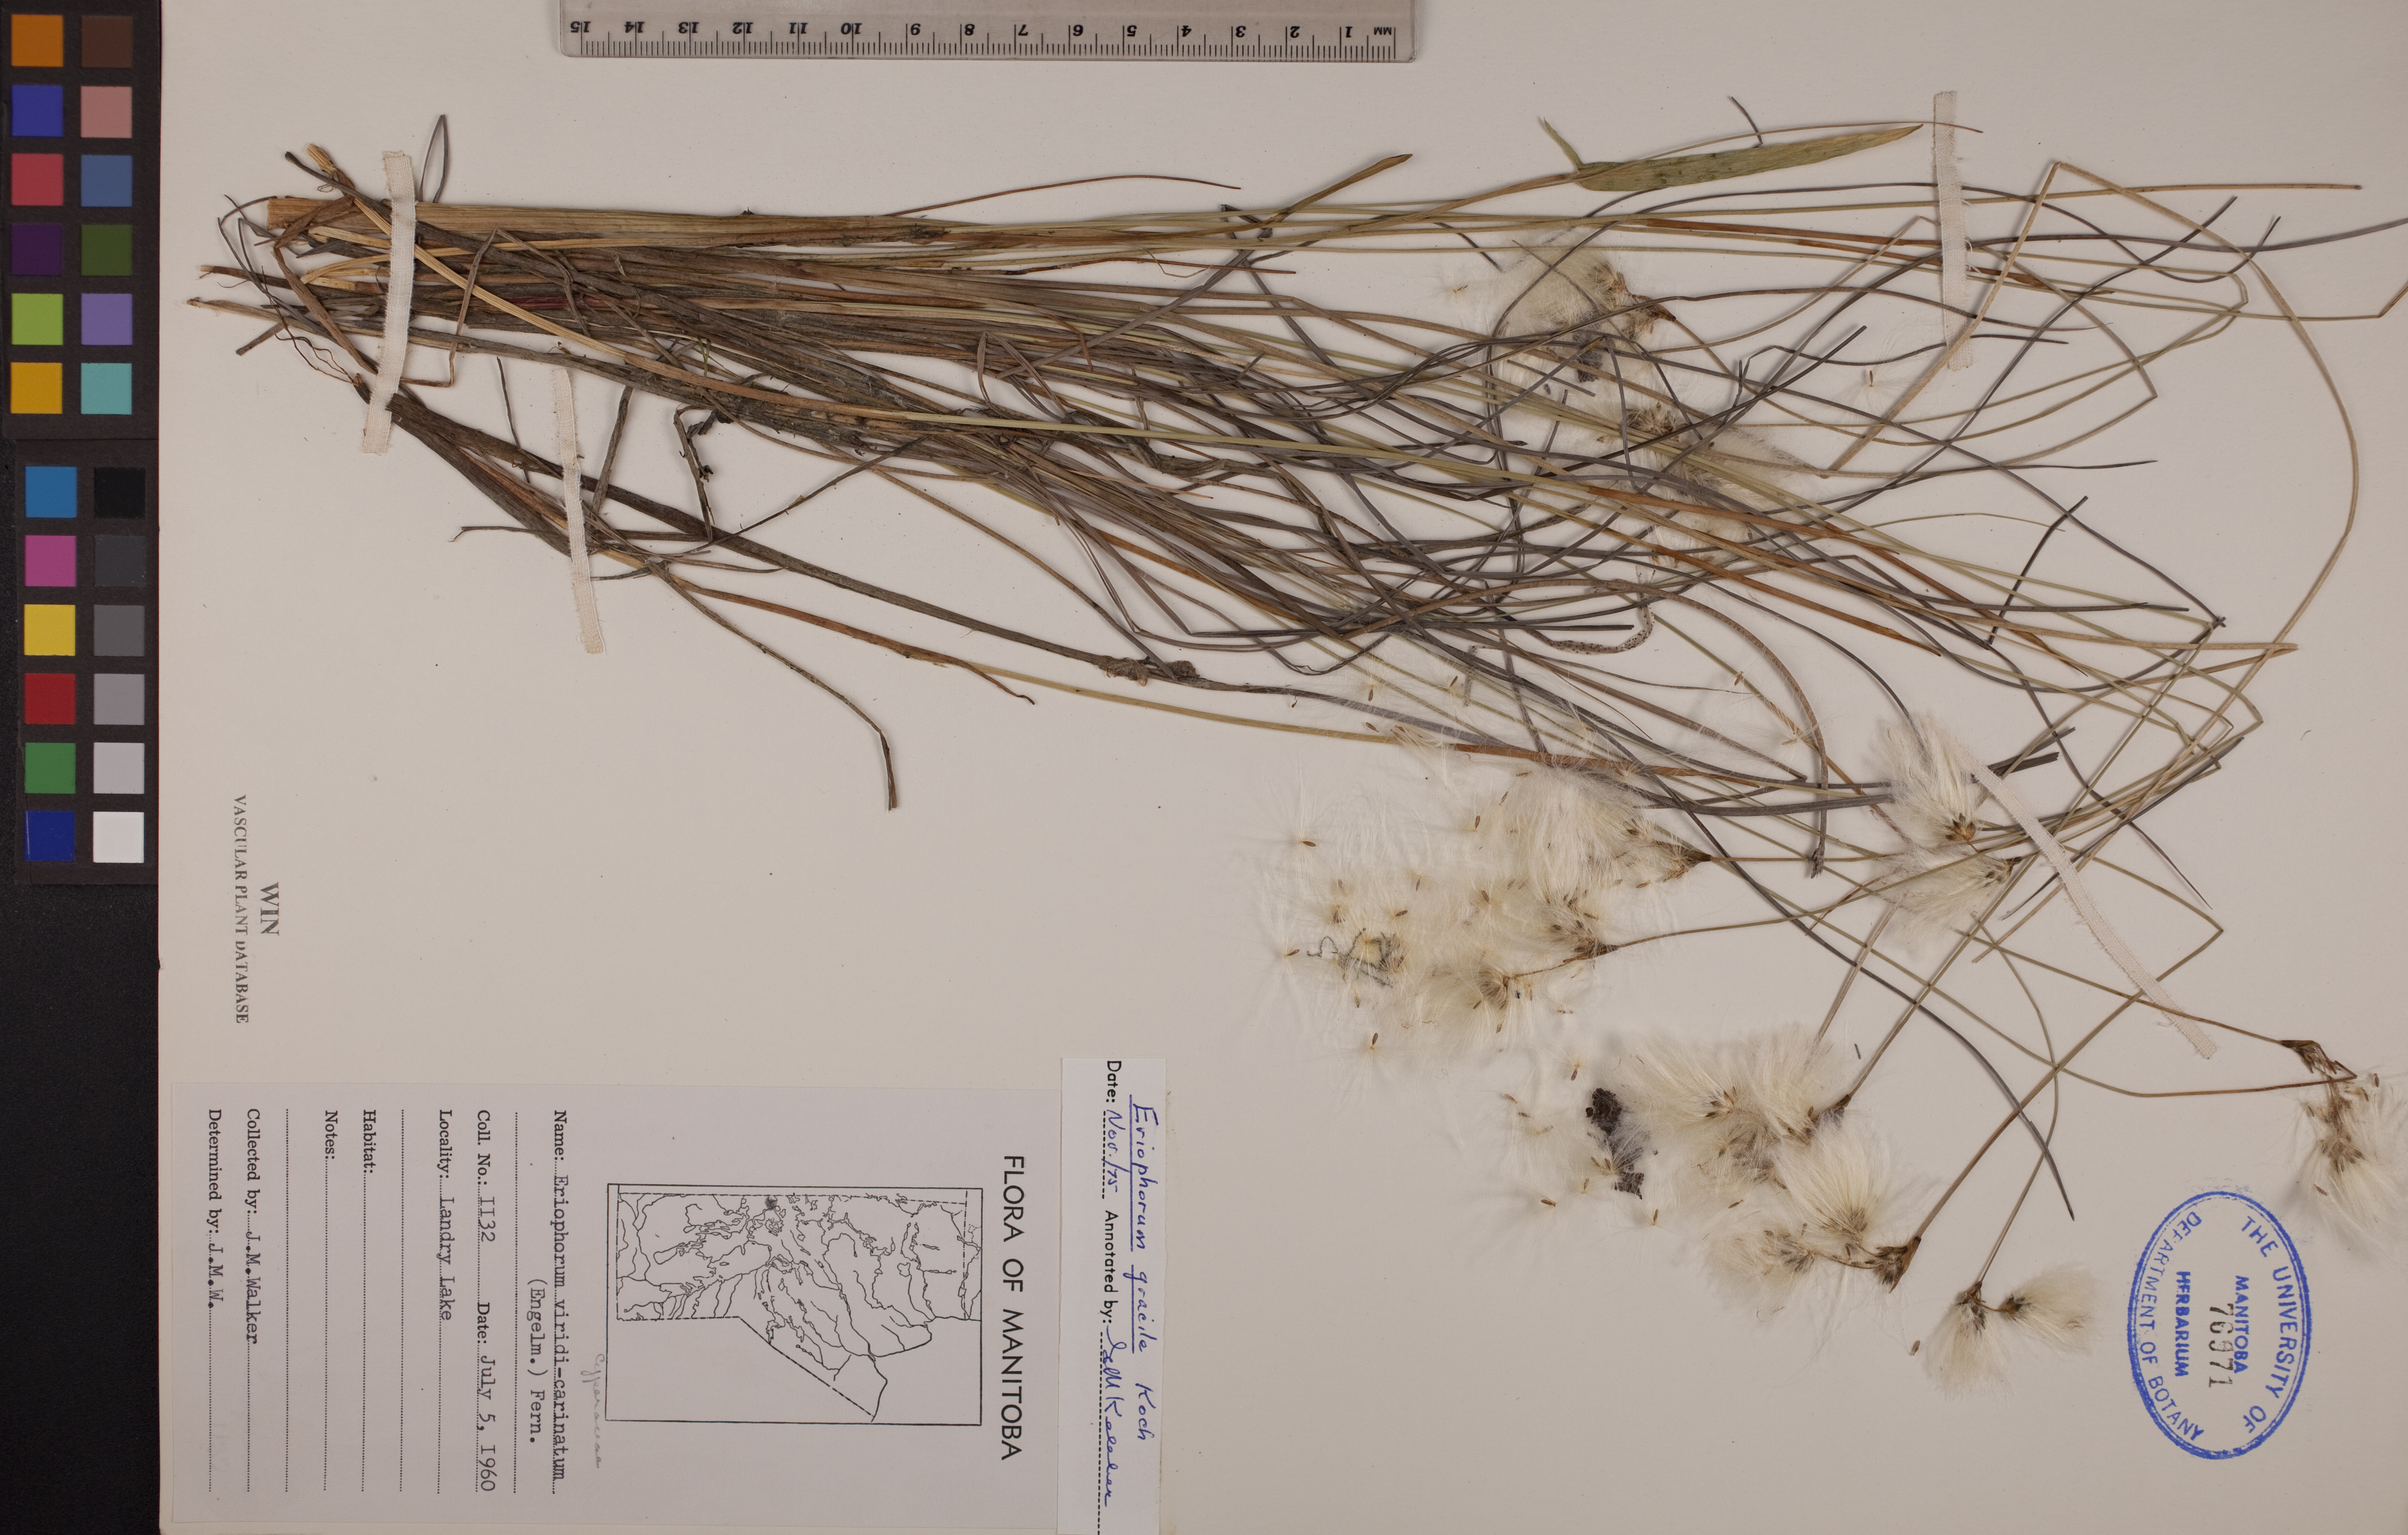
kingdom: Plantae
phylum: Tracheophyta
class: Liliopsida
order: Poales
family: Cyperaceae
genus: Eriophorum
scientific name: Eriophorum gracile
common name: Slender cottongrass
